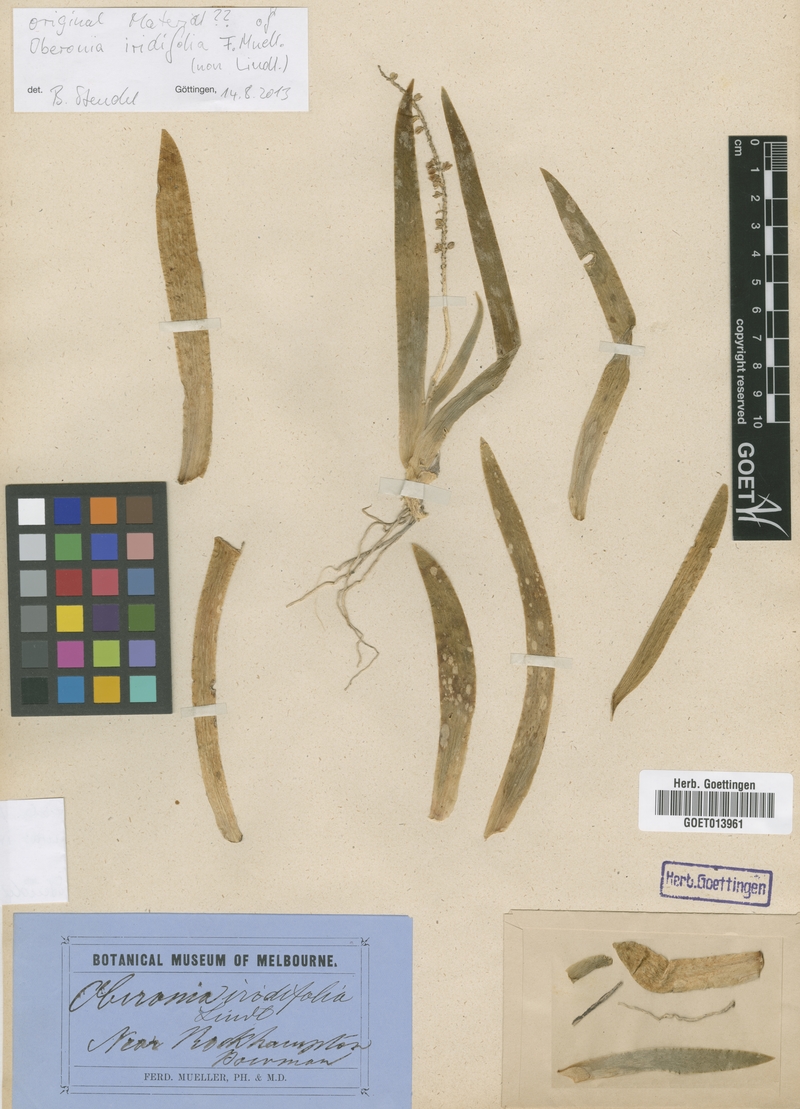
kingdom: Plantae
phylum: Tracheophyta
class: Liliopsida
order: Asparagales
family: Orchidaceae
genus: Oberonia
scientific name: Oberonia iridifolia
